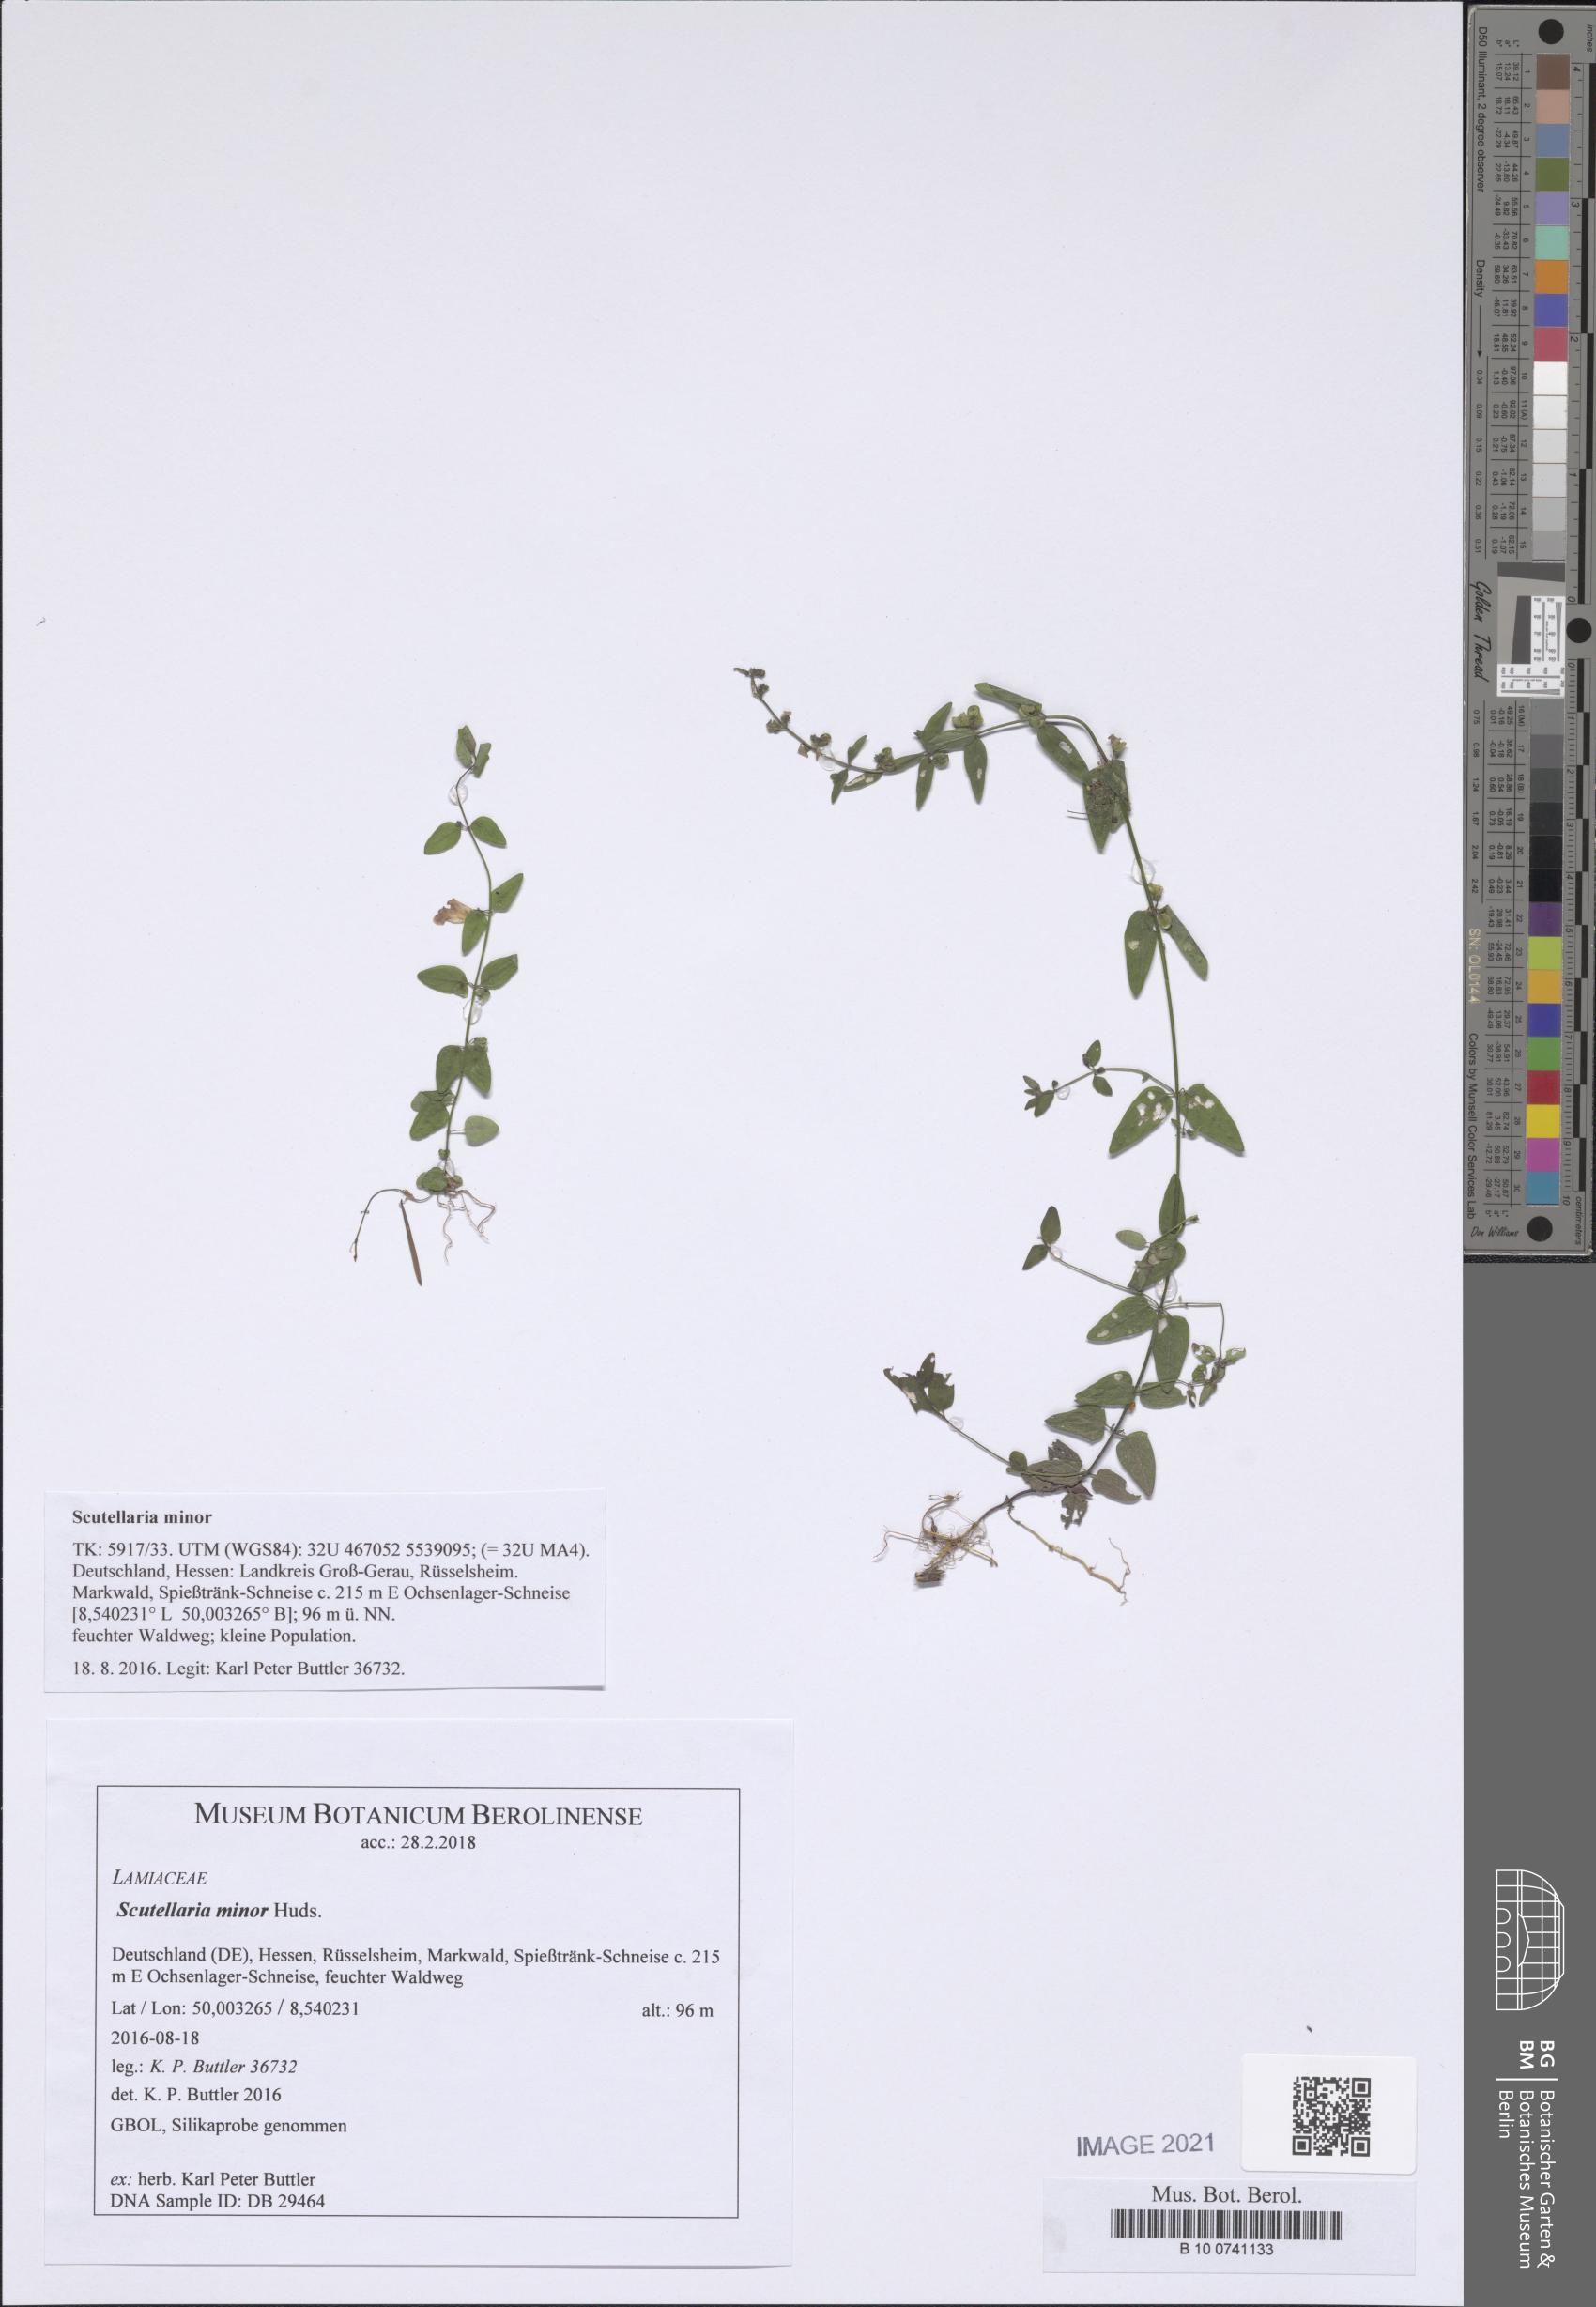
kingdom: Plantae
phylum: Tracheophyta
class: Magnoliopsida
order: Lamiales
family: Lamiaceae
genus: Scutellaria
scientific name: Scutellaria minor
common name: Lesser skullcap
